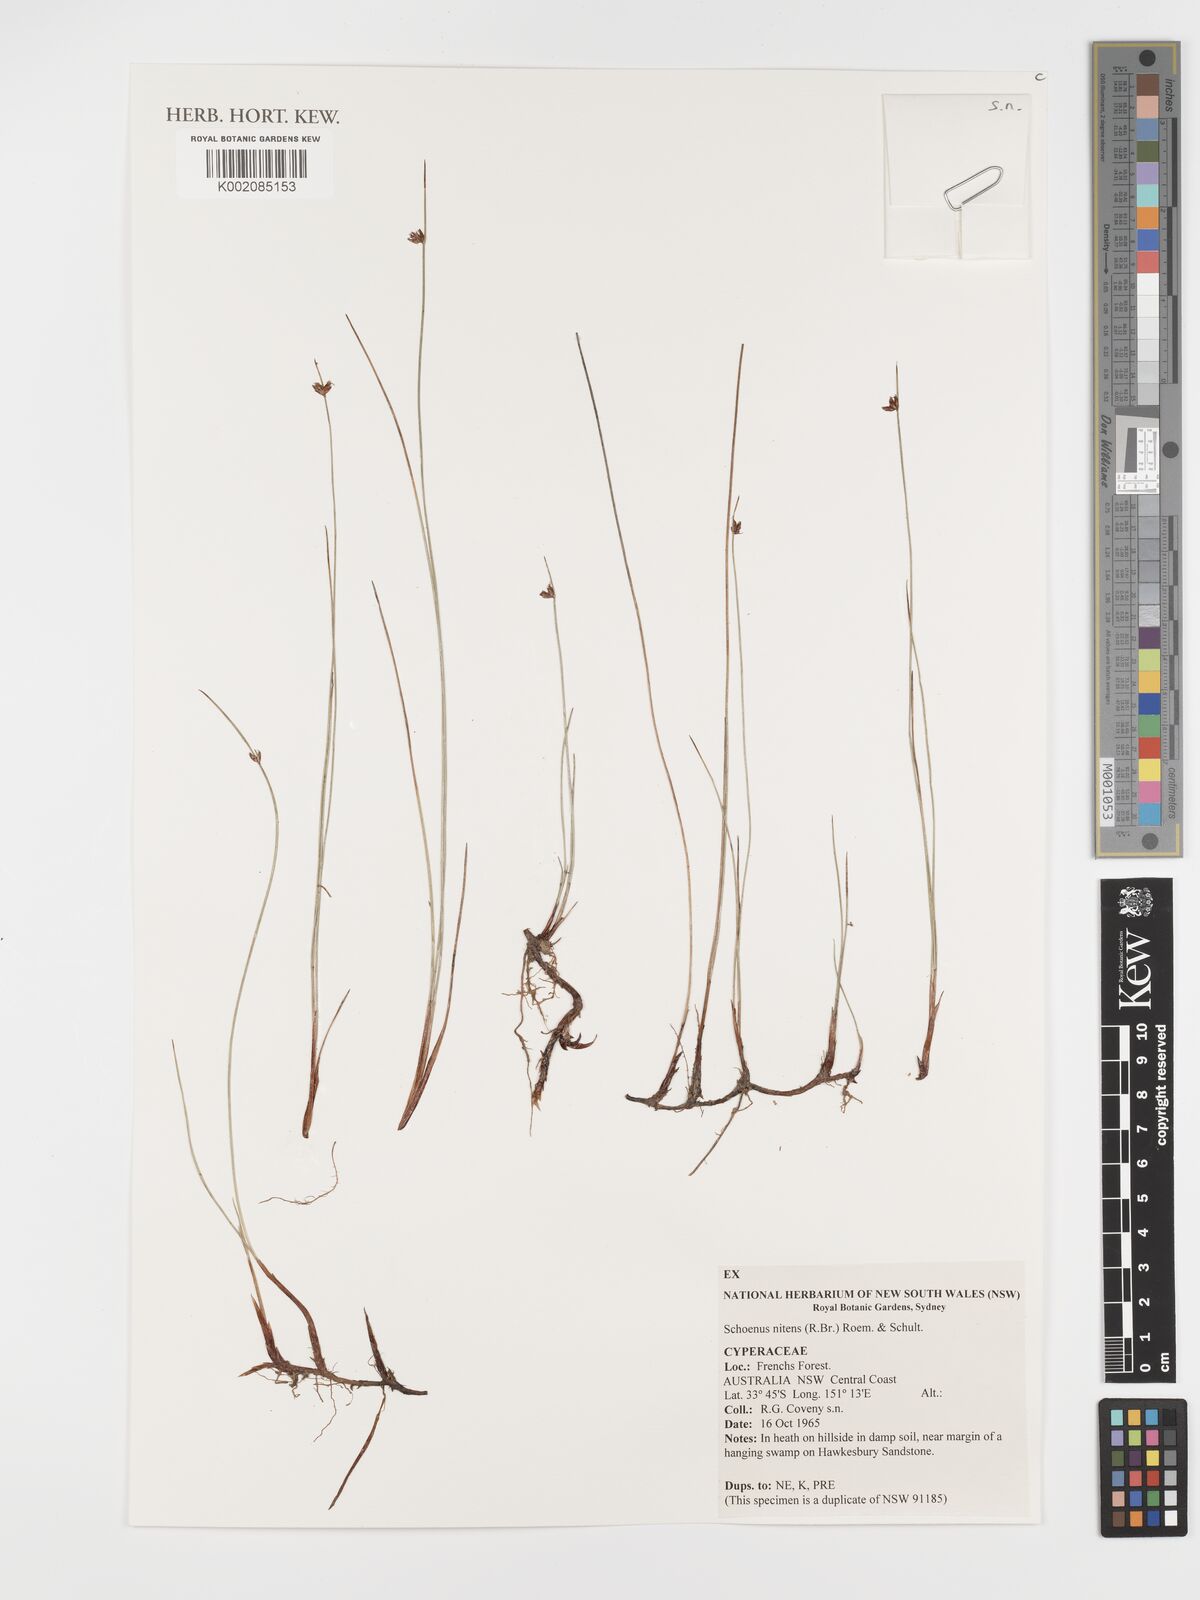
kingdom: Plantae
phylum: Tracheophyta
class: Liliopsida
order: Poales
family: Cyperaceae
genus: Schoenus
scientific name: Schoenus nitens
